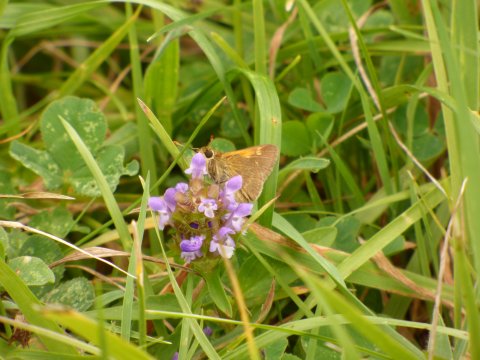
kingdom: Animalia
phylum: Arthropoda
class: Insecta
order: Lepidoptera
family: Hesperiidae
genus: Polites
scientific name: Polites themistocles
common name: Tawny-edged Skipper
